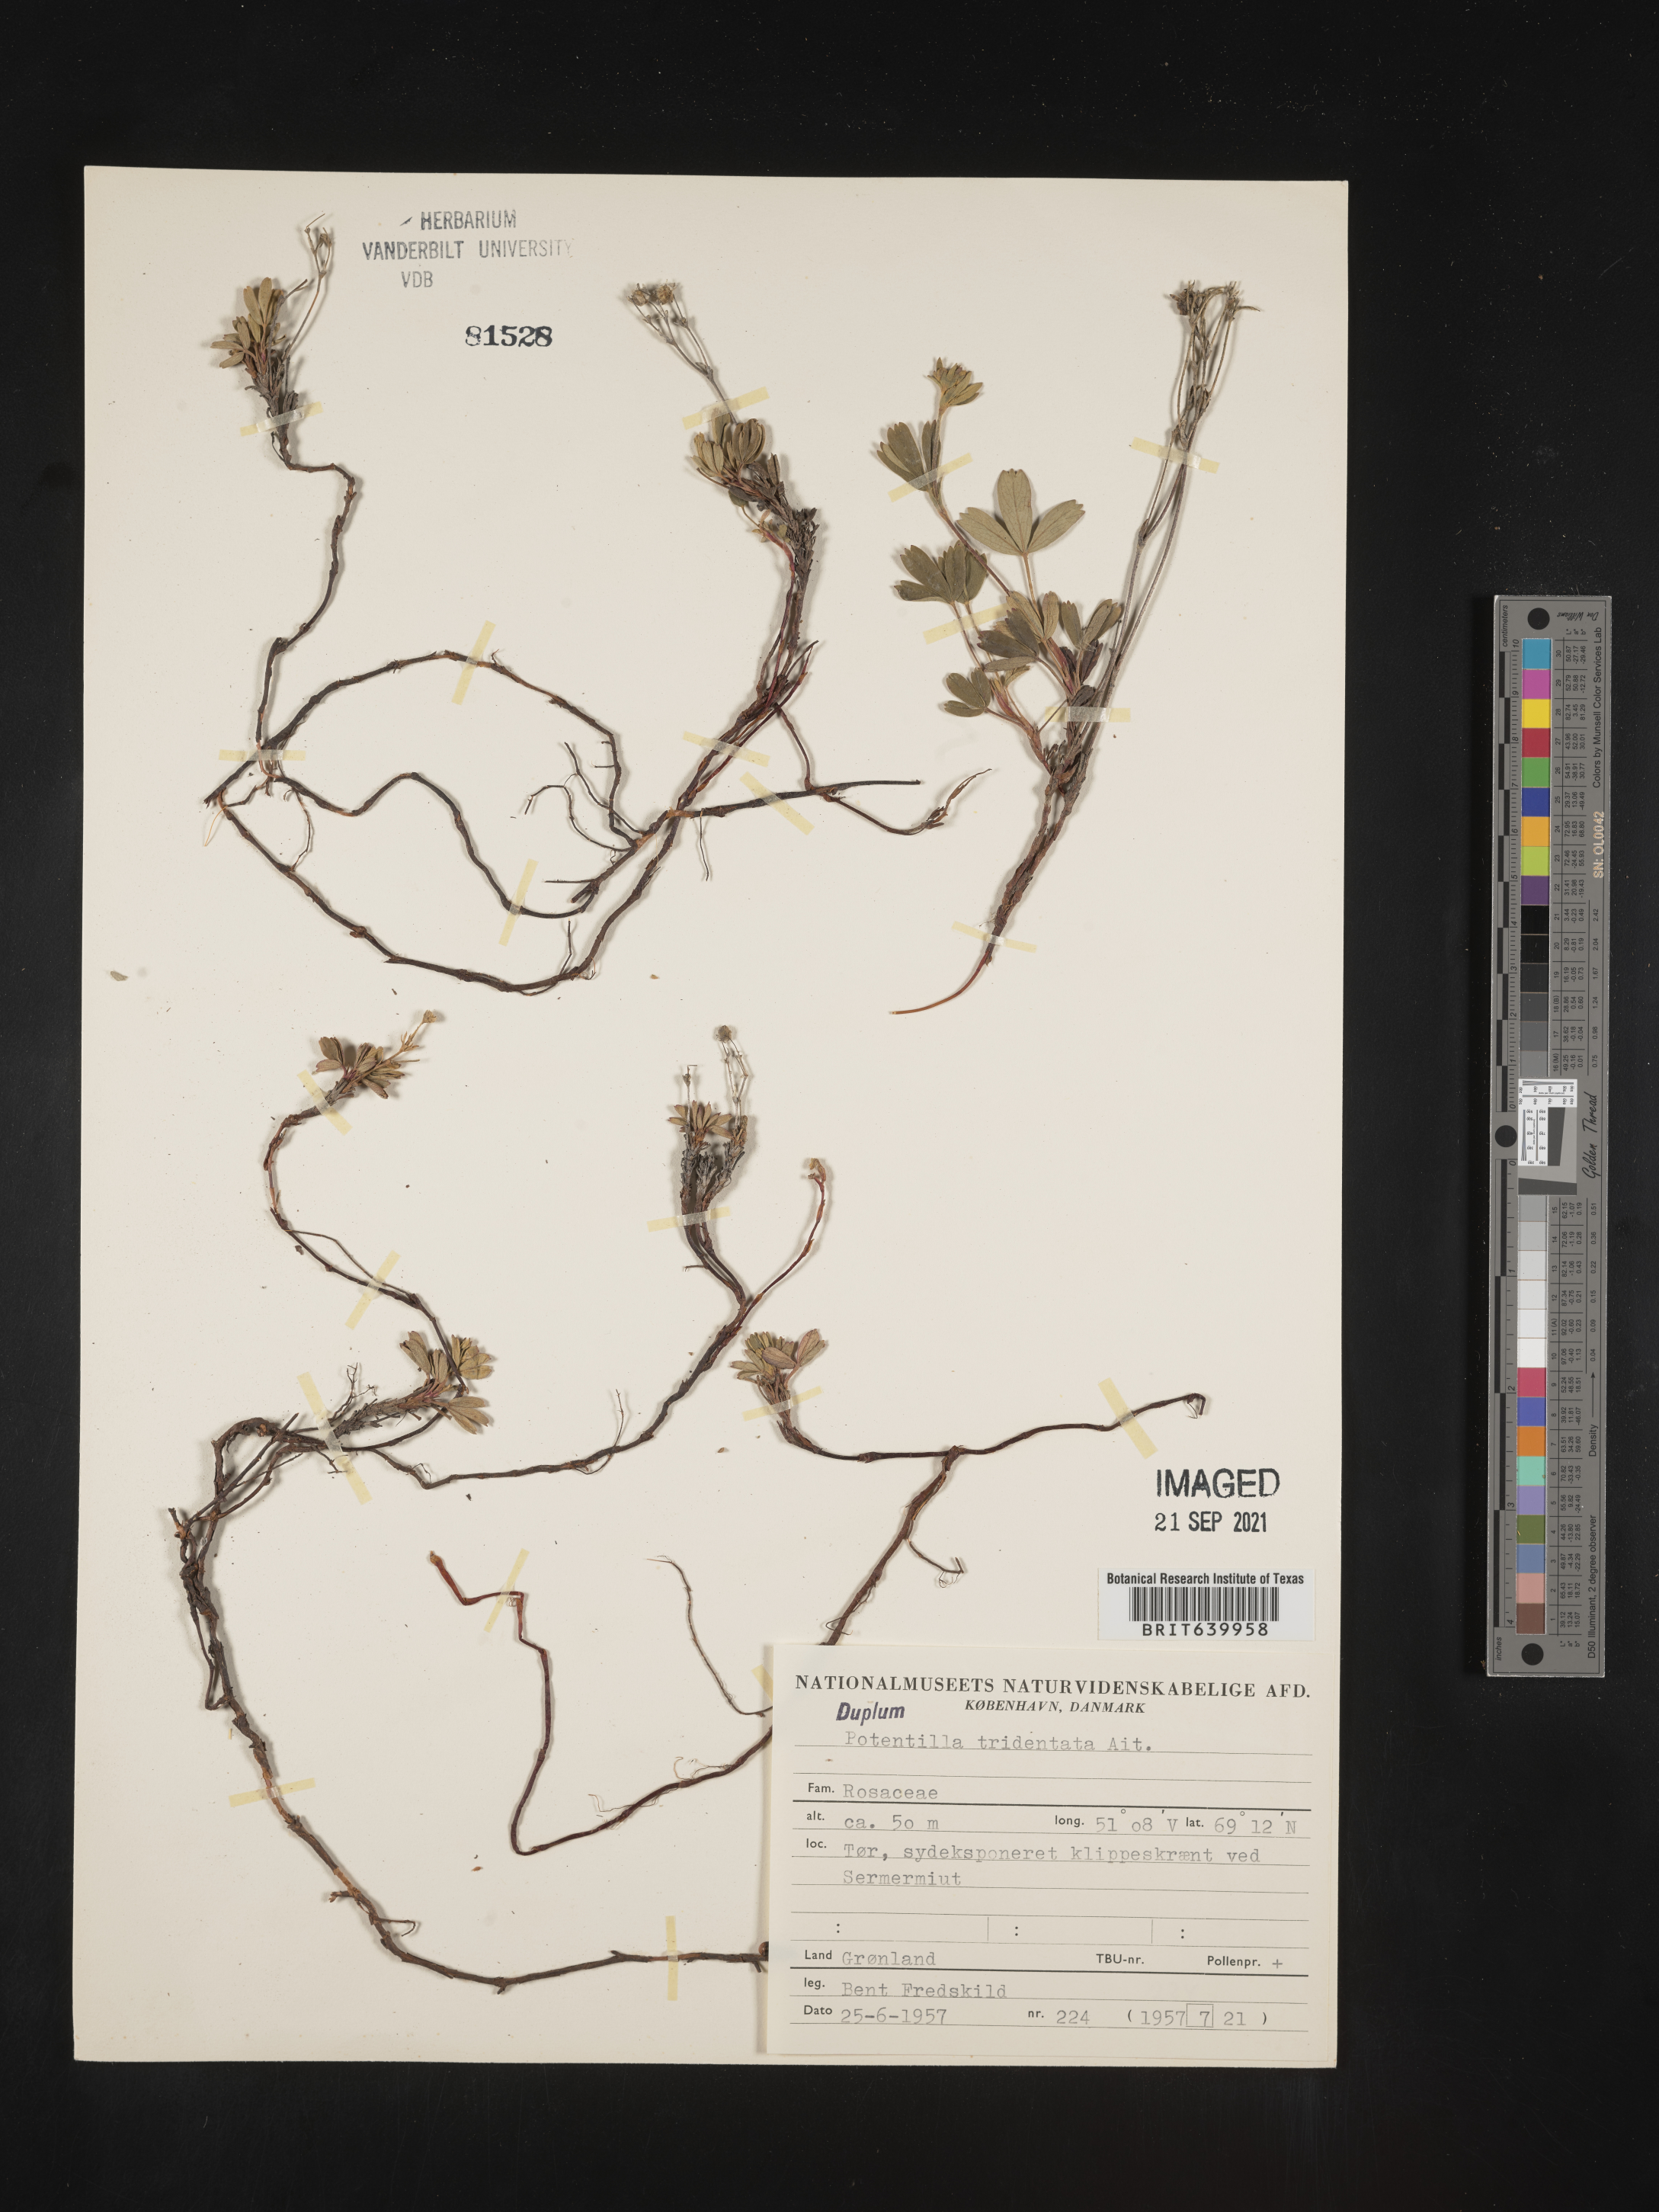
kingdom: Plantae
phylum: Tracheophyta
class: Magnoliopsida
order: Rosales
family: Rosaceae
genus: Potentilla
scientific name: Potentilla
